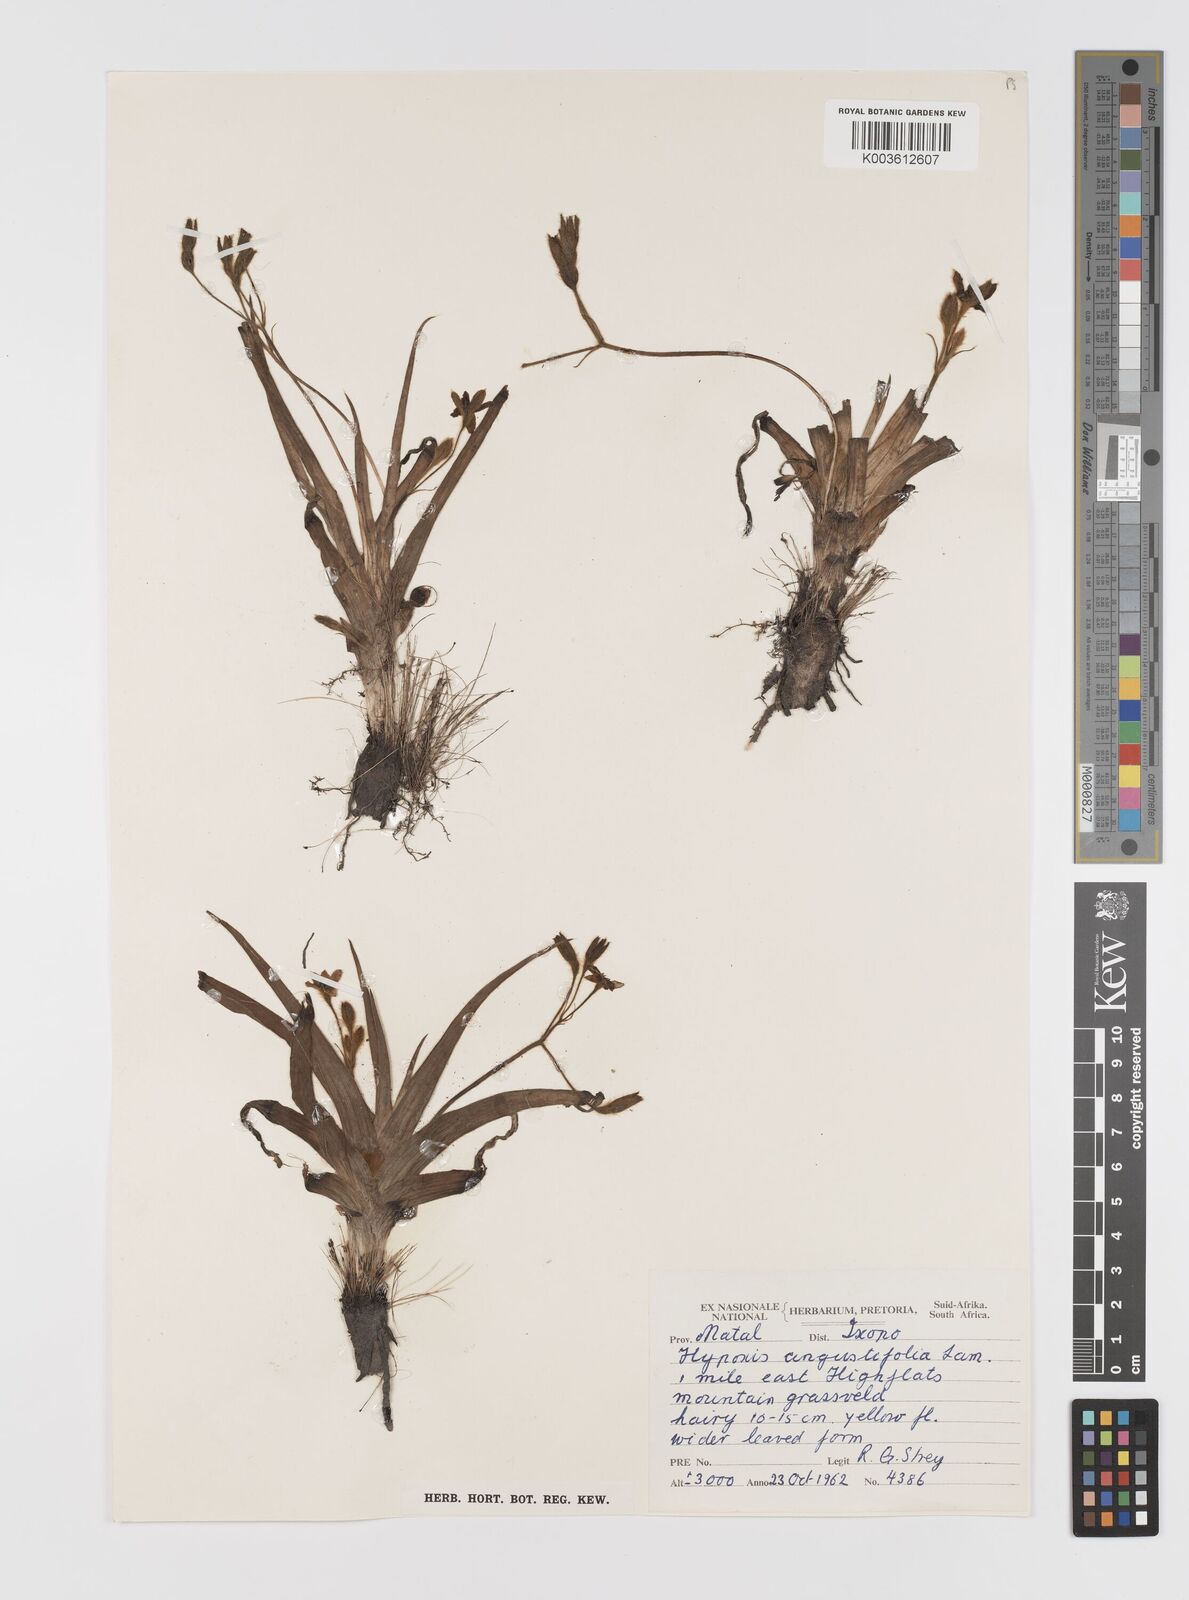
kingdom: Plantae
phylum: Tracheophyta
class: Liliopsida
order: Asparagales
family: Hypoxidaceae
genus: Hypoxis
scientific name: Hypoxis angustifolia
